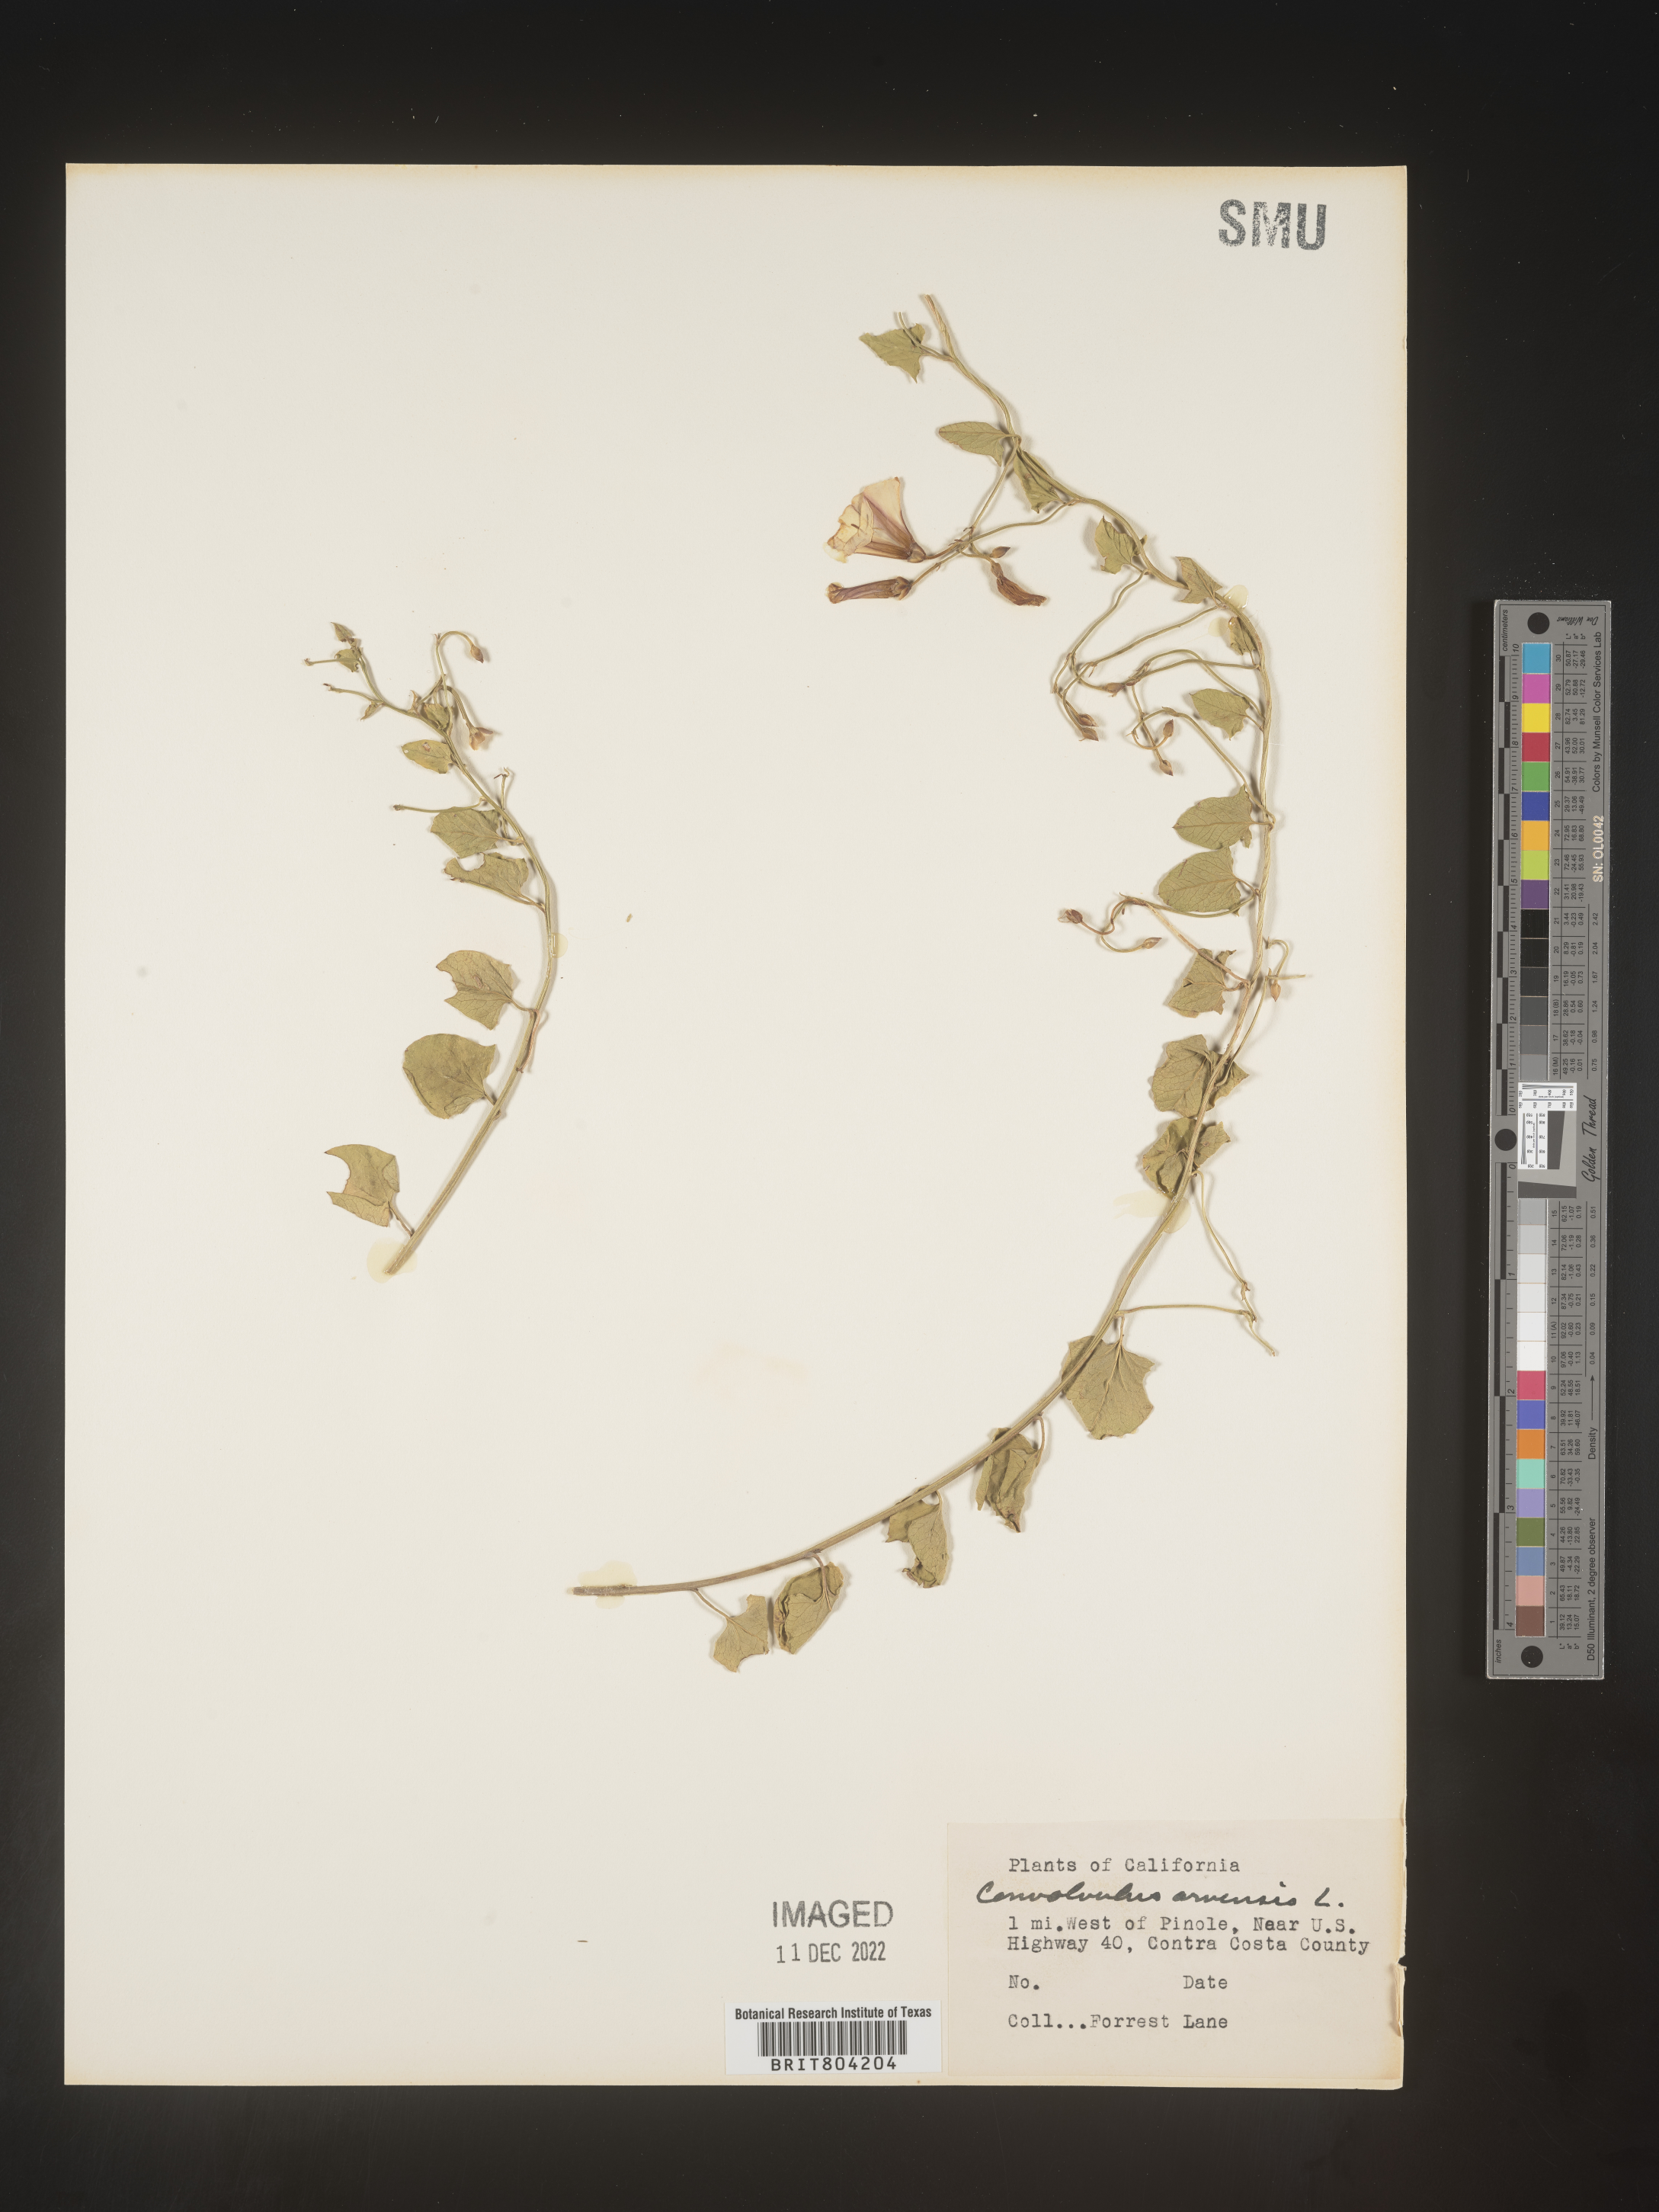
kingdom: Plantae
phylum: Tracheophyta
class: Magnoliopsida
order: Solanales
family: Convolvulaceae
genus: Convolvulus
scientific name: Convolvulus arvensis
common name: Field bindweed
